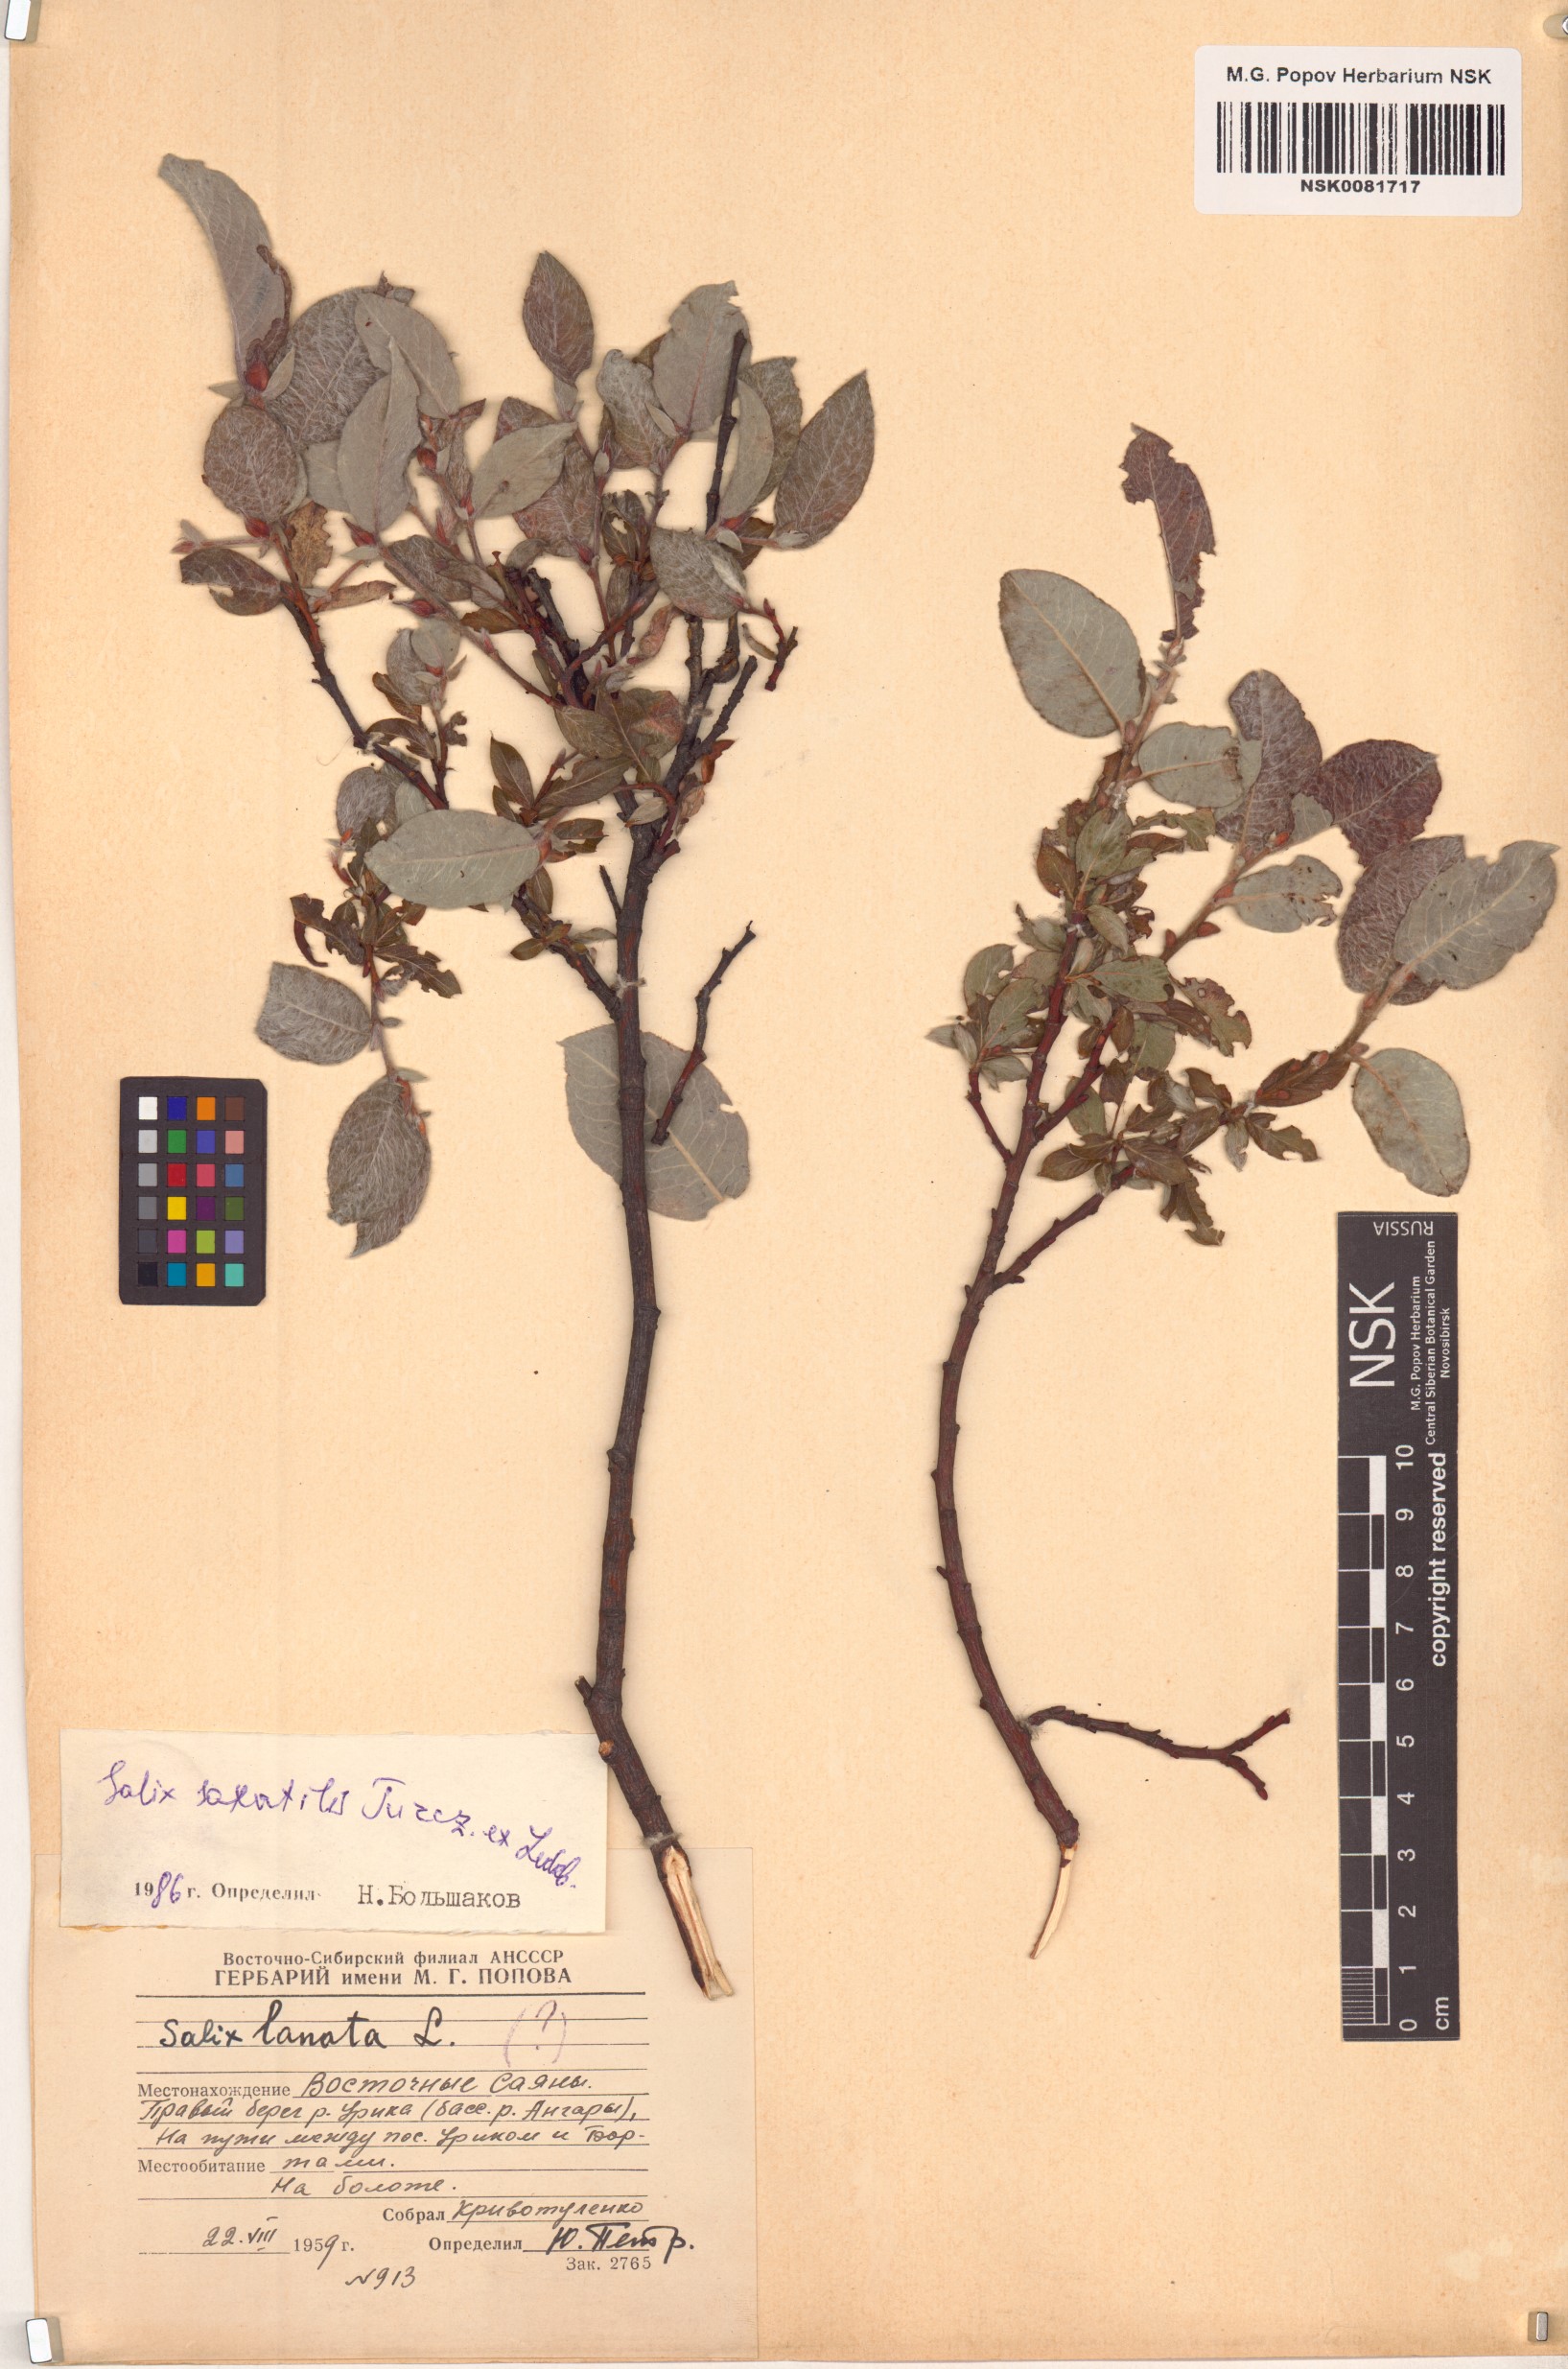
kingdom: Plantae
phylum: Tracheophyta
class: Magnoliopsida
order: Malpighiales
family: Salicaceae
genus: Salix
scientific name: Salix saxatilis
